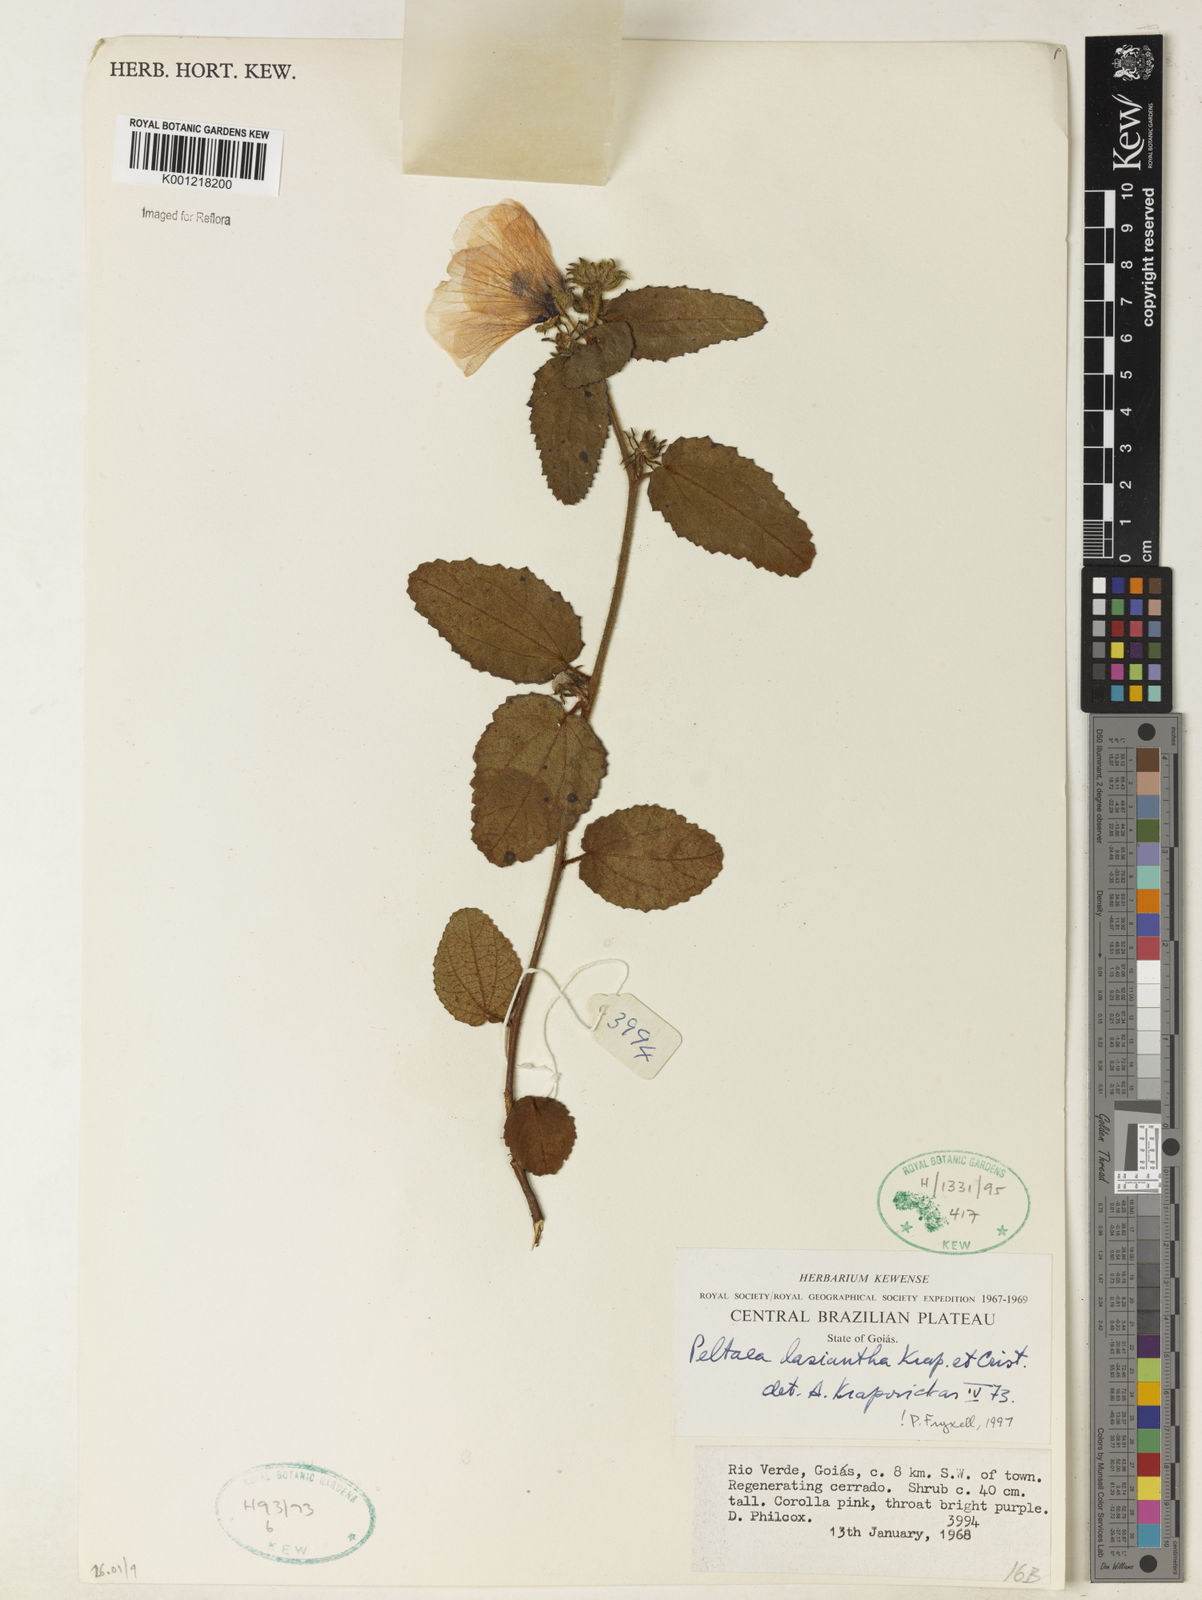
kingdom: Plantae
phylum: Tracheophyta
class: Magnoliopsida
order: Malvales
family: Malvaceae
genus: Peltaea
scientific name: Peltaea
